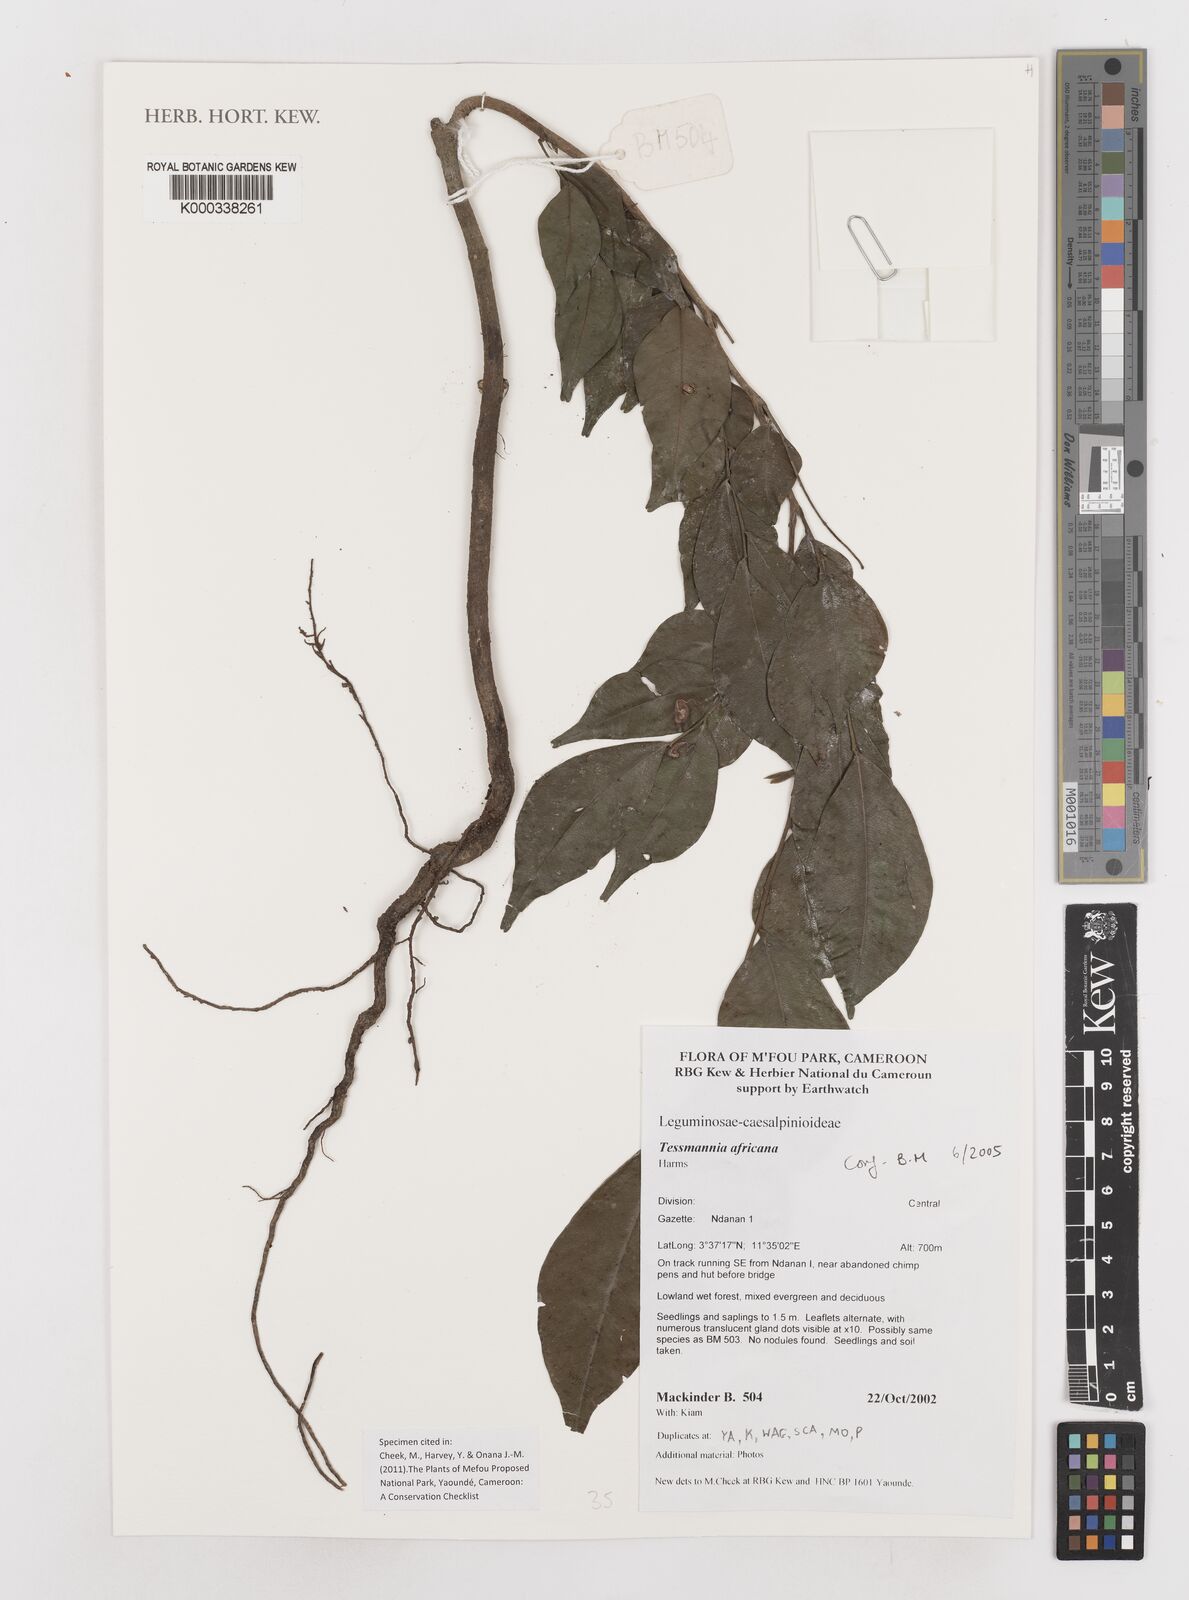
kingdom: Plantae
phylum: Tracheophyta
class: Magnoliopsida
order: Fabales
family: Fabaceae
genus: Tessmannia
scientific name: Tessmannia africana
